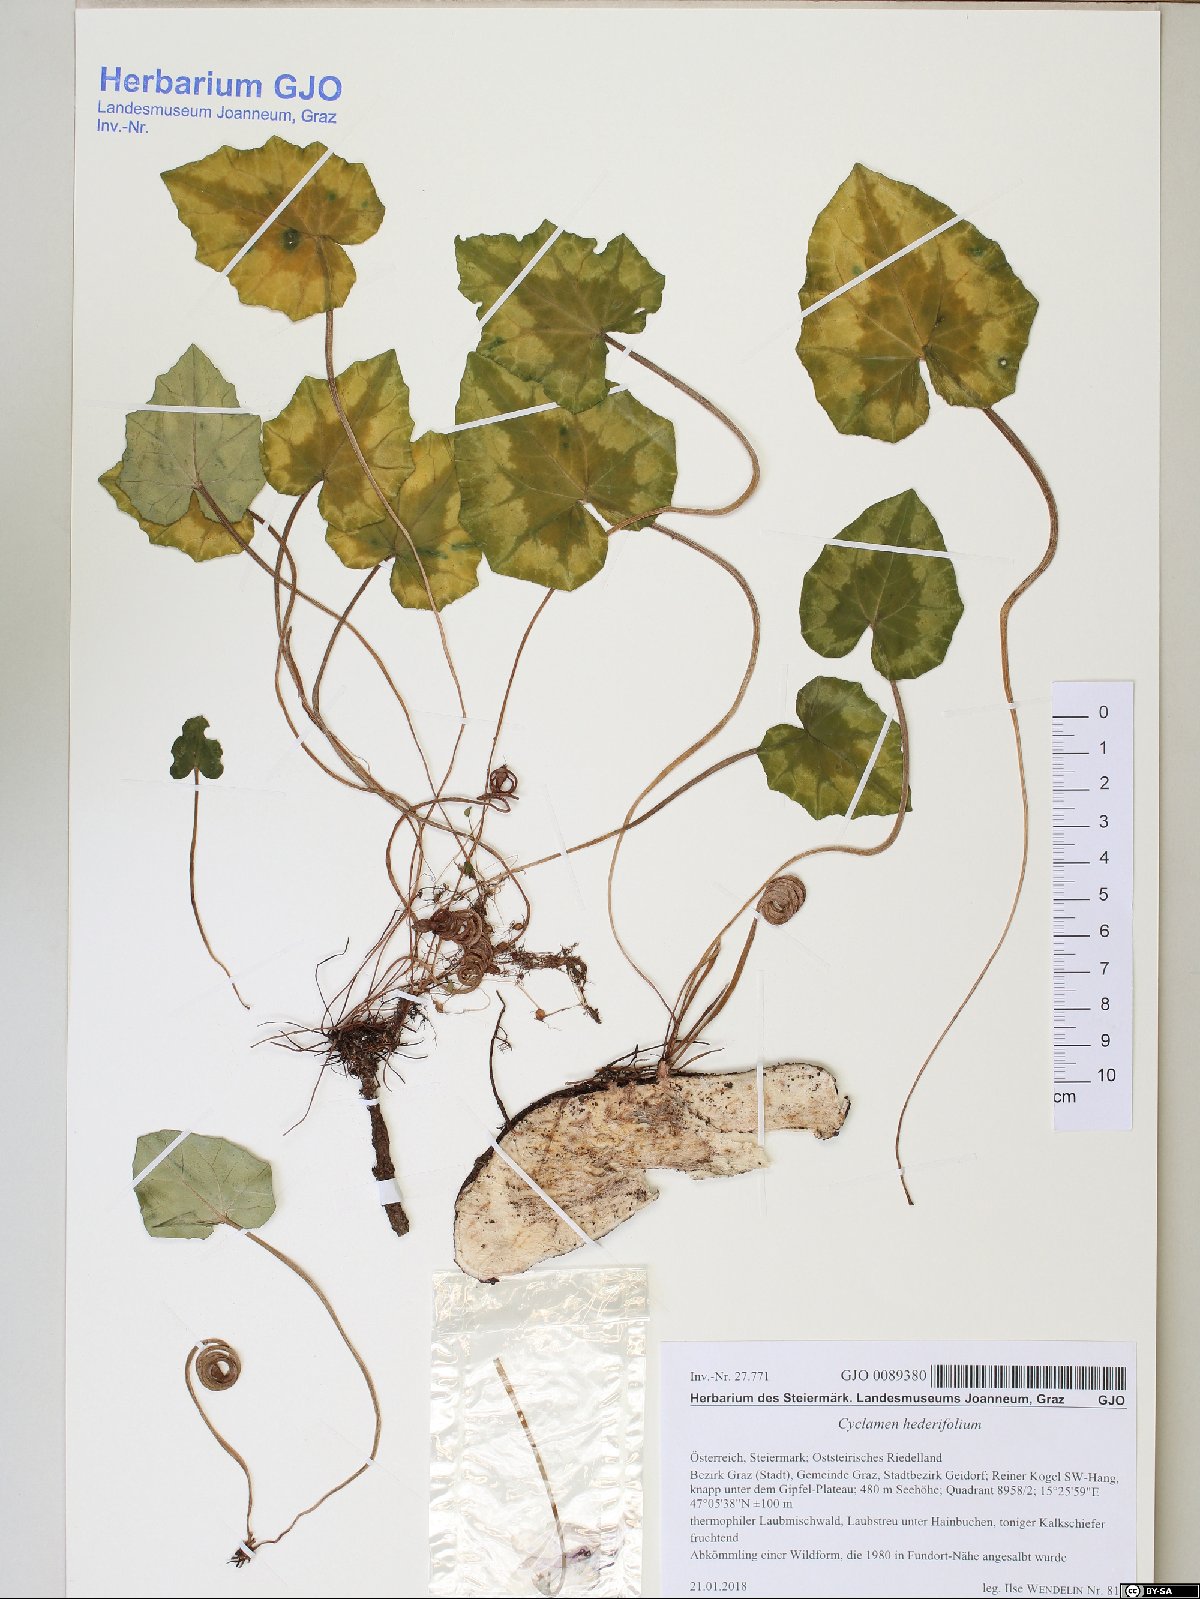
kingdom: Plantae
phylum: Tracheophyta
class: Magnoliopsida
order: Ericales
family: Primulaceae
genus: Cyclamen
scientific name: Cyclamen hederifolium
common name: Sowbread
